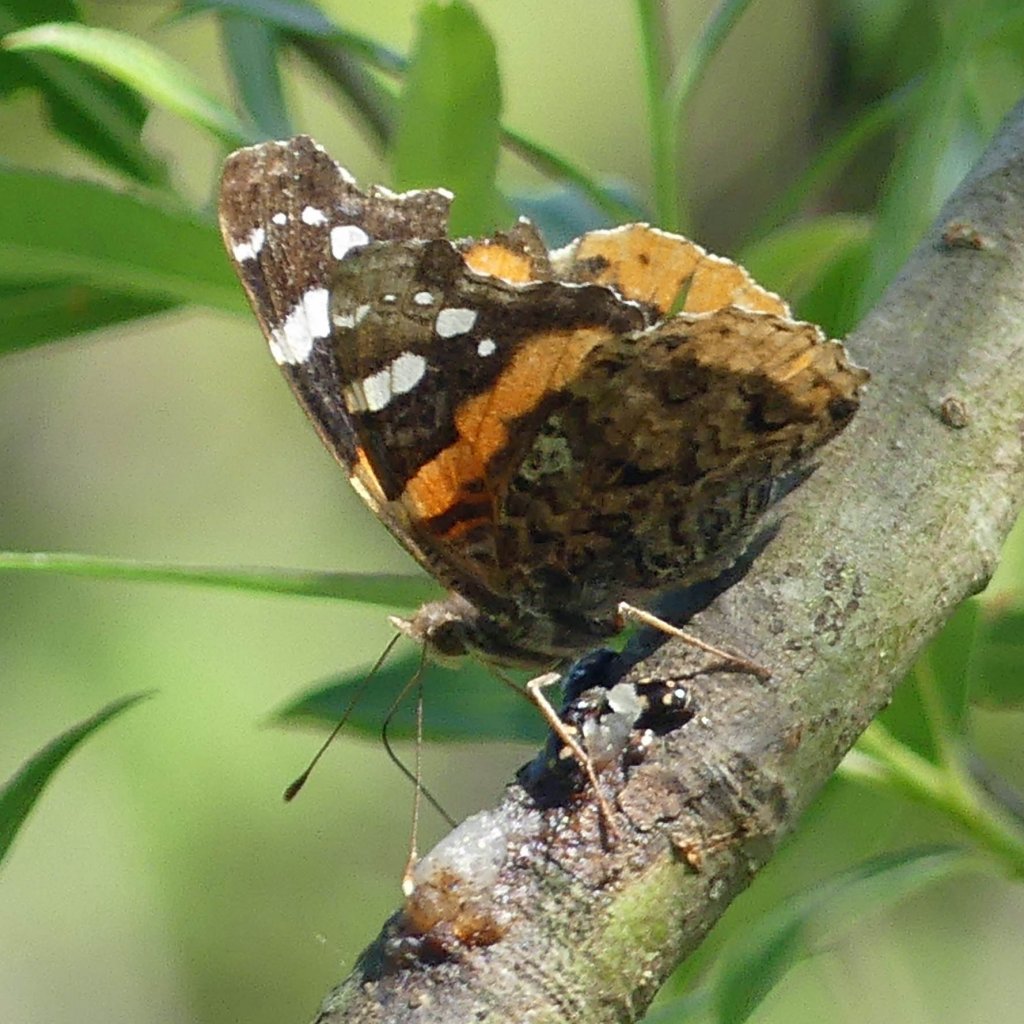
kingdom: Animalia
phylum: Arthropoda
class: Insecta
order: Lepidoptera
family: Nymphalidae
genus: Vanessa
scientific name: Vanessa atalanta
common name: Red Admiral
